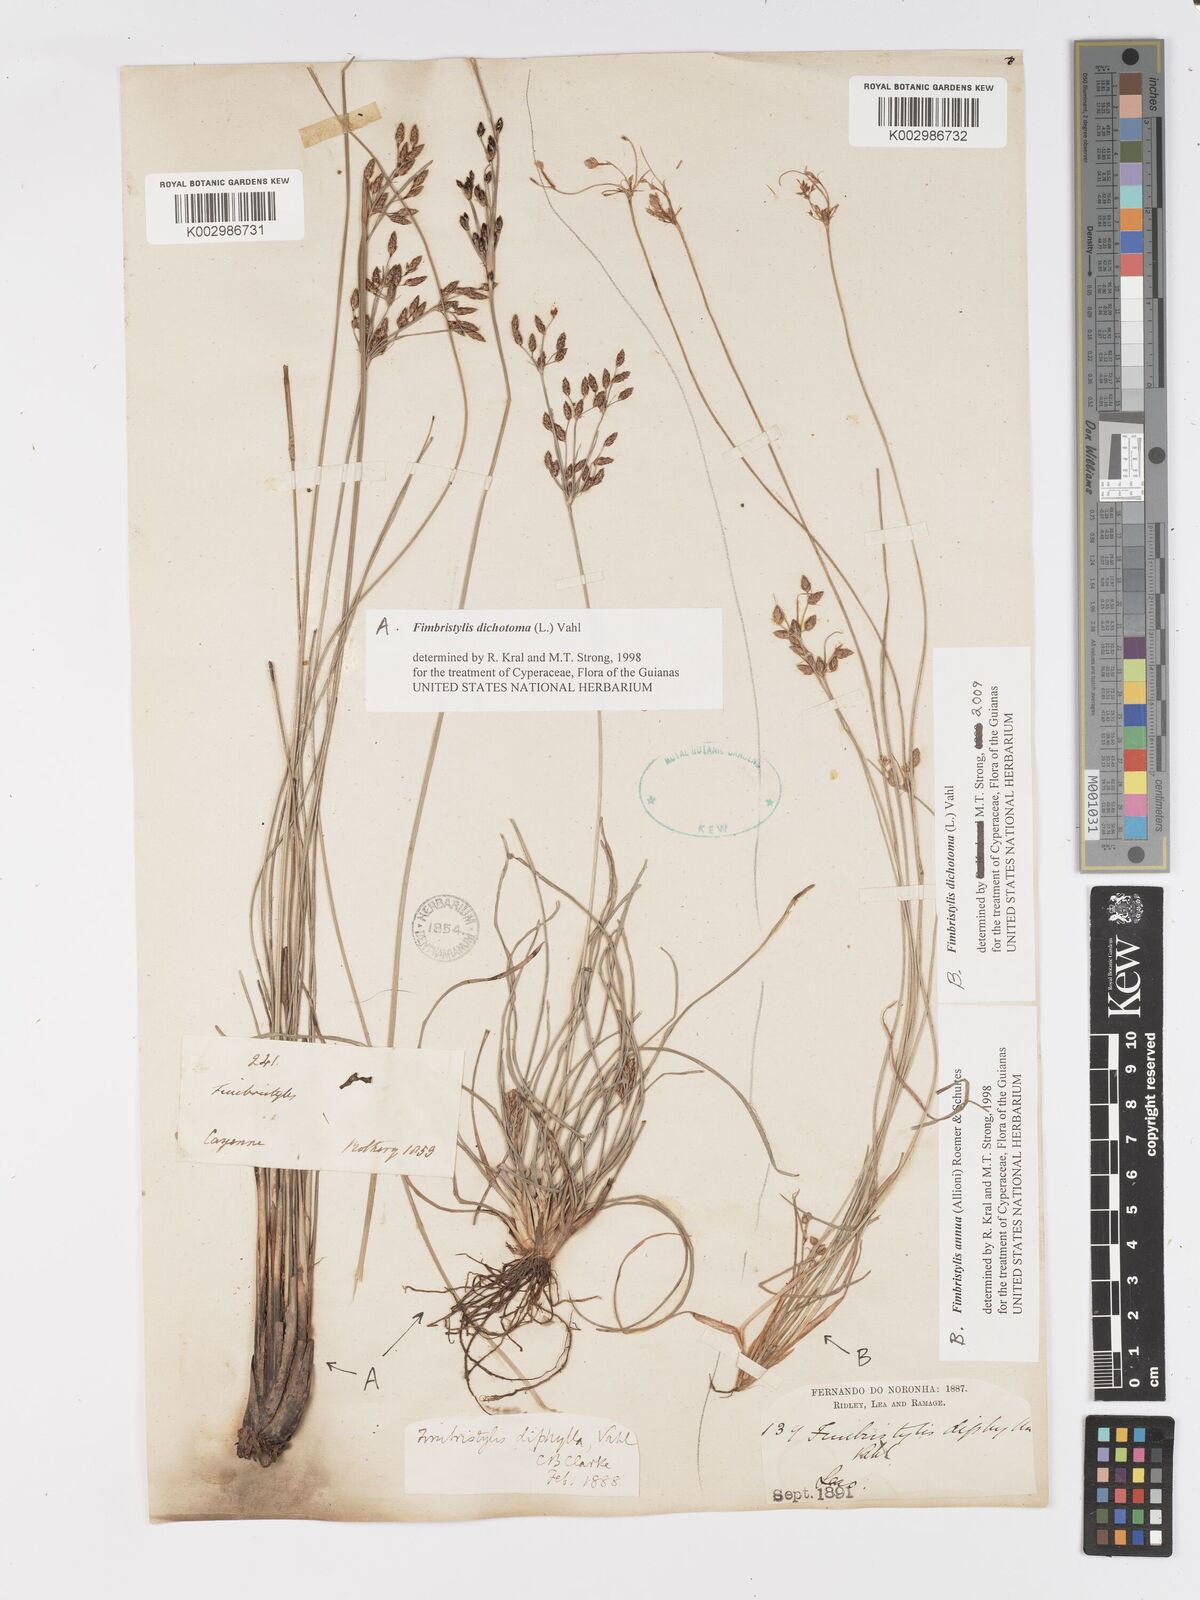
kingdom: Plantae
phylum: Tracheophyta
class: Liliopsida
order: Poales
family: Cyperaceae
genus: Fimbristylis
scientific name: Fimbristylis dichotoma
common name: Forked fimbry
